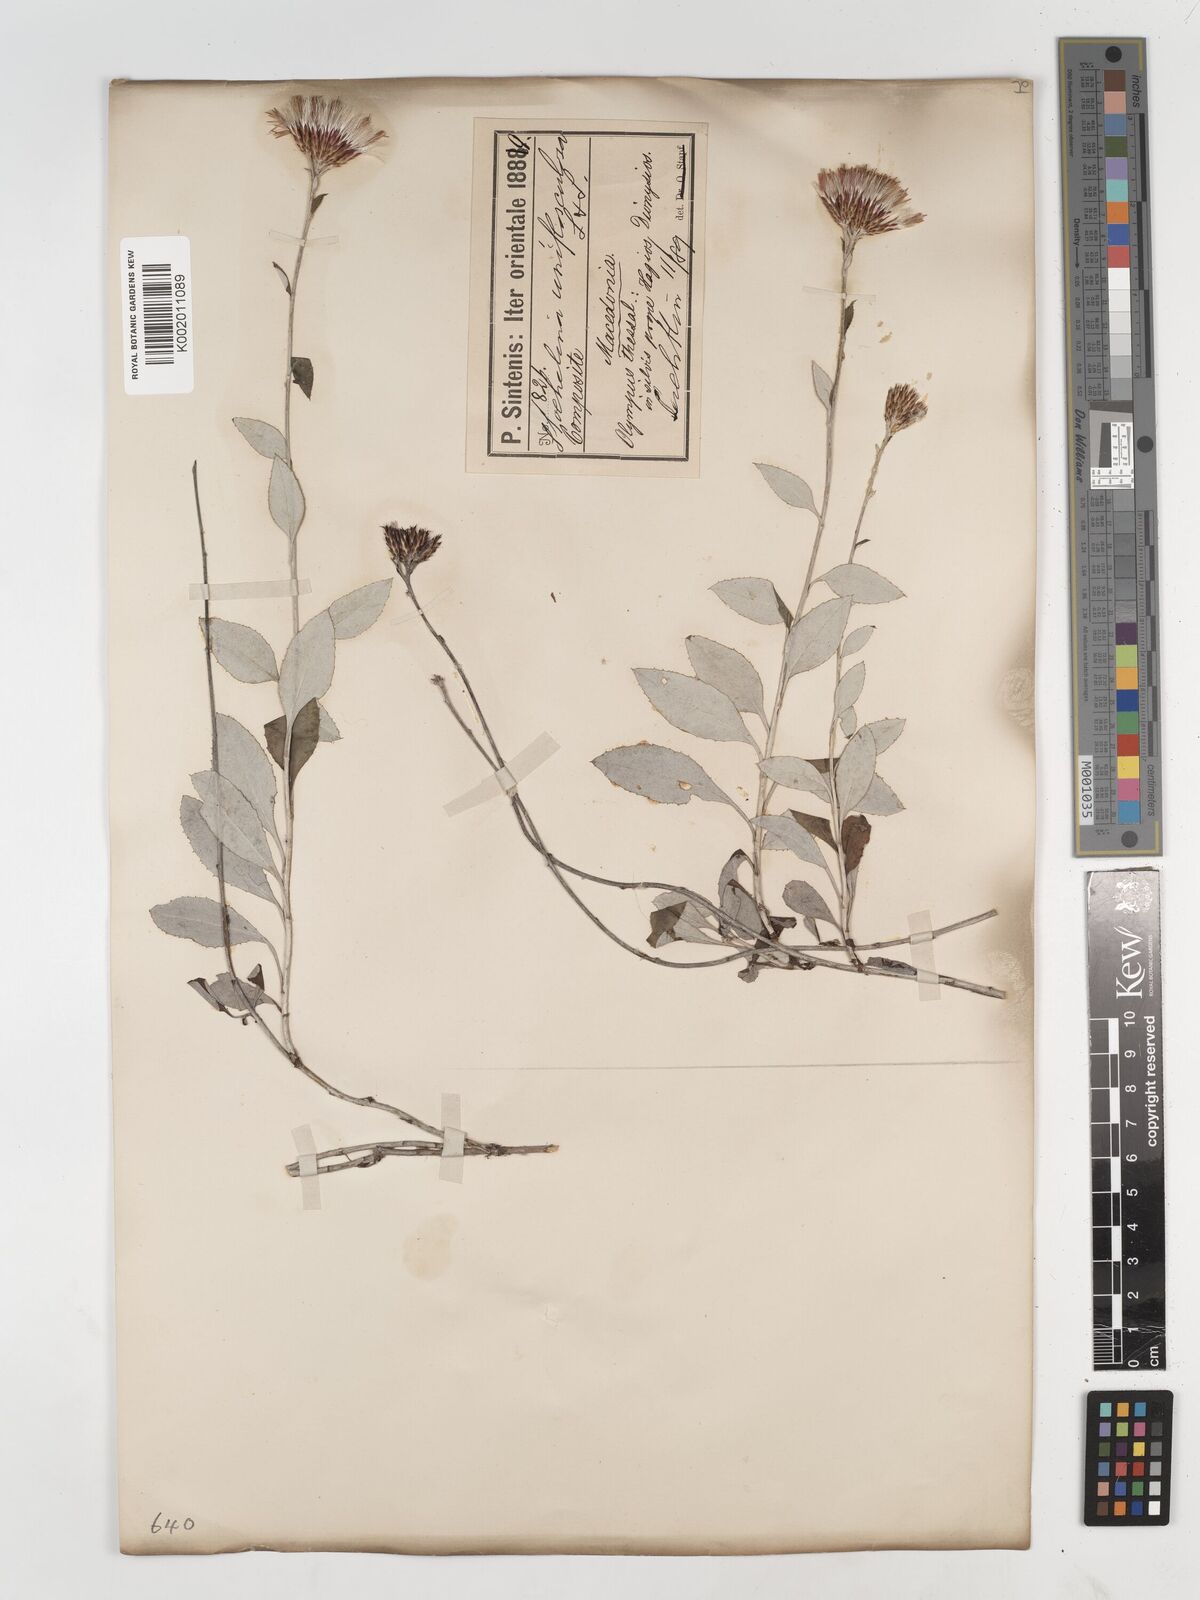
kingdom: Plantae
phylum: Tracheophyta
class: Magnoliopsida
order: Asterales
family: Asteraceae
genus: Staehelina
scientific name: Staehelina uniflosculosa
